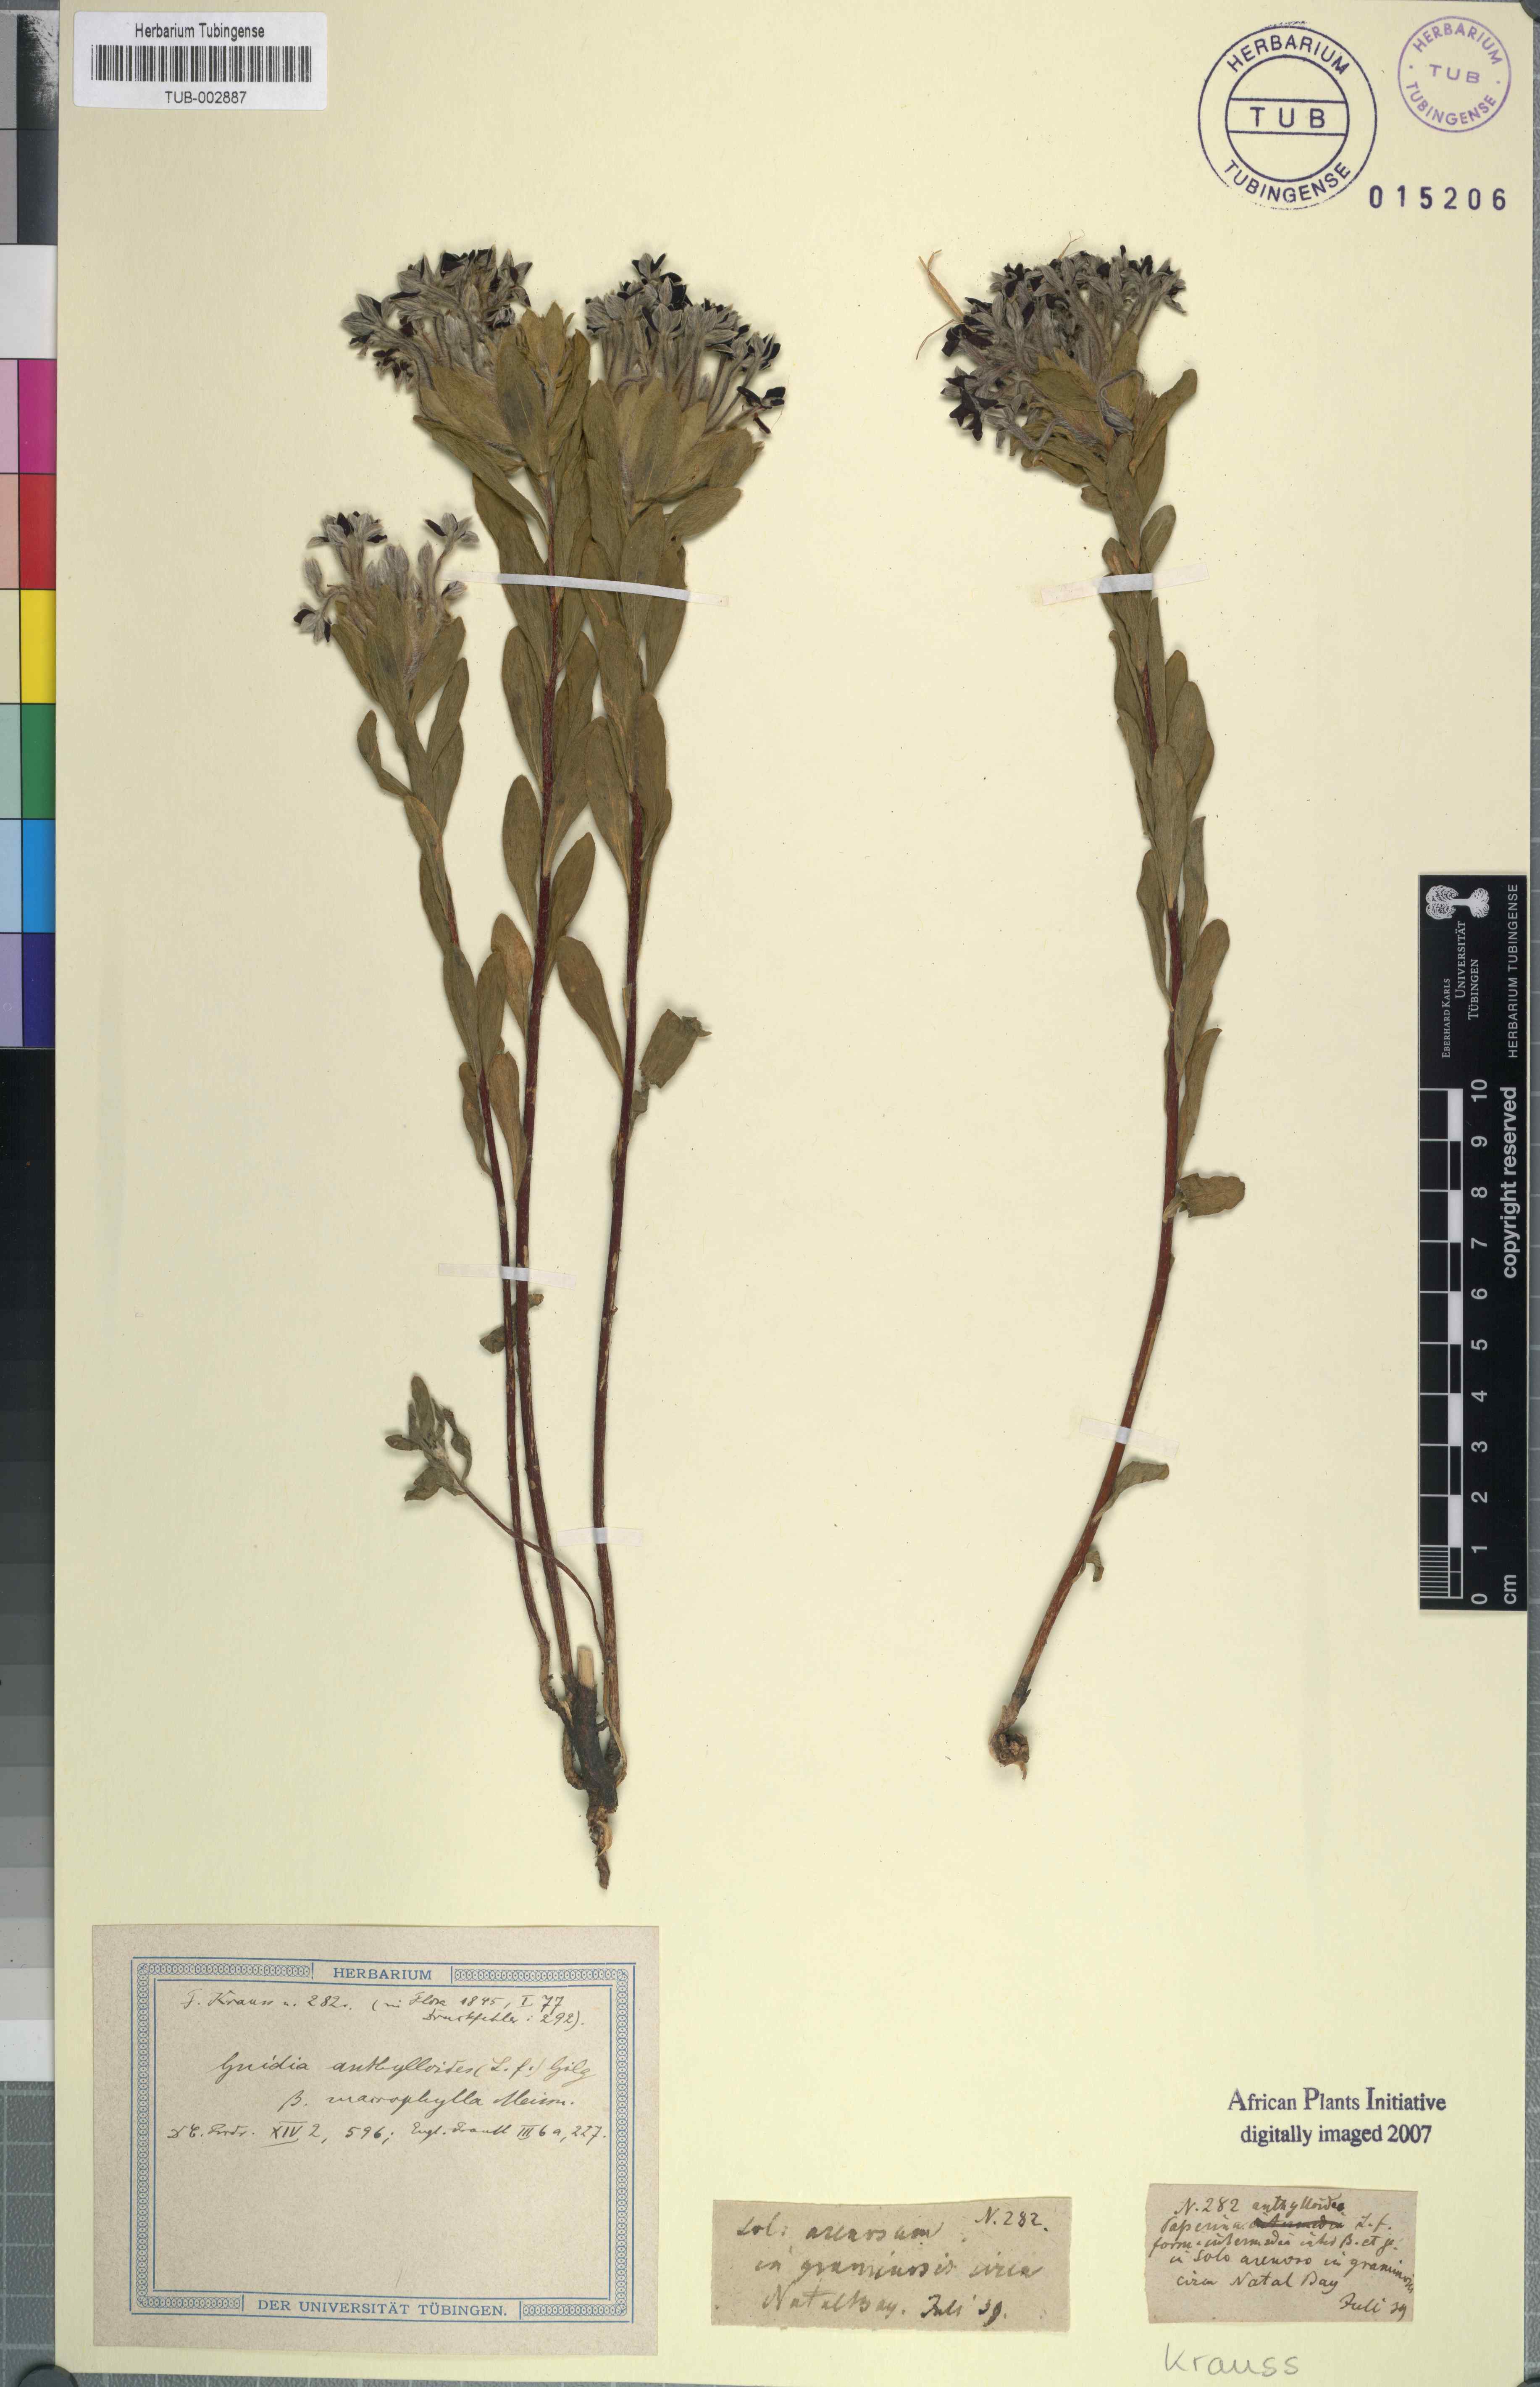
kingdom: Plantae
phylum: Tracheophyta
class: Magnoliopsida
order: Malvales
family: Thymelaeaceae
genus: Gnidia
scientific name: Gnidia anthylloides
